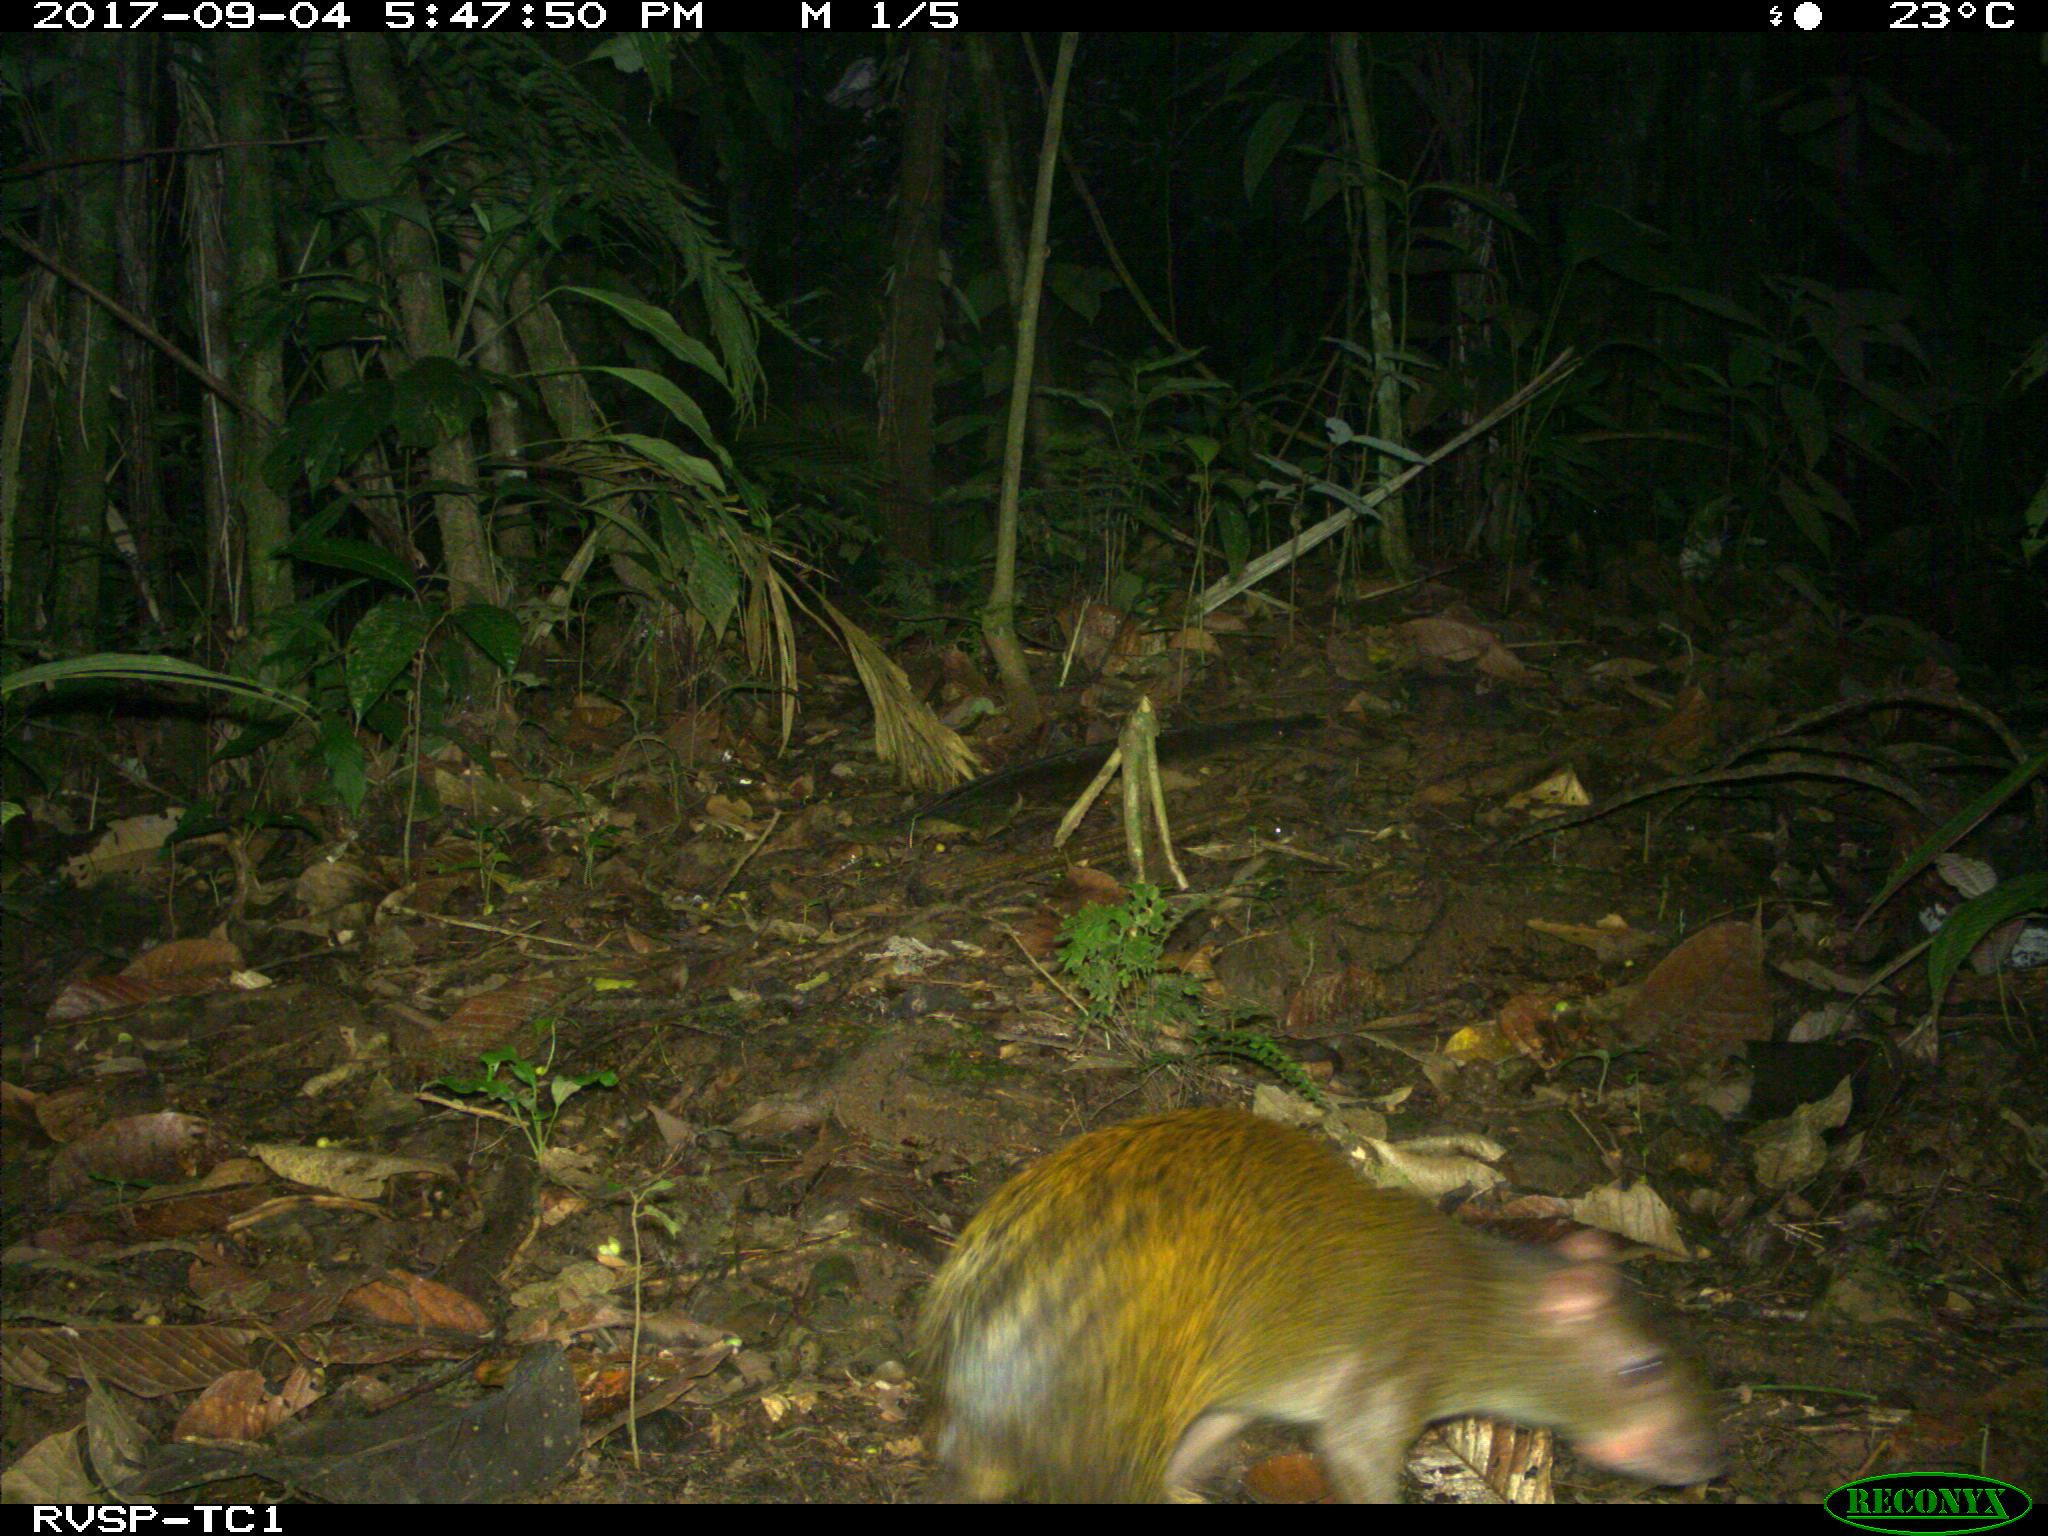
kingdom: Animalia
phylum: Chordata
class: Mammalia
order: Rodentia
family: Dasyproctidae
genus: Dasyprocta
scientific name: Dasyprocta punctata
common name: Central american agouti
